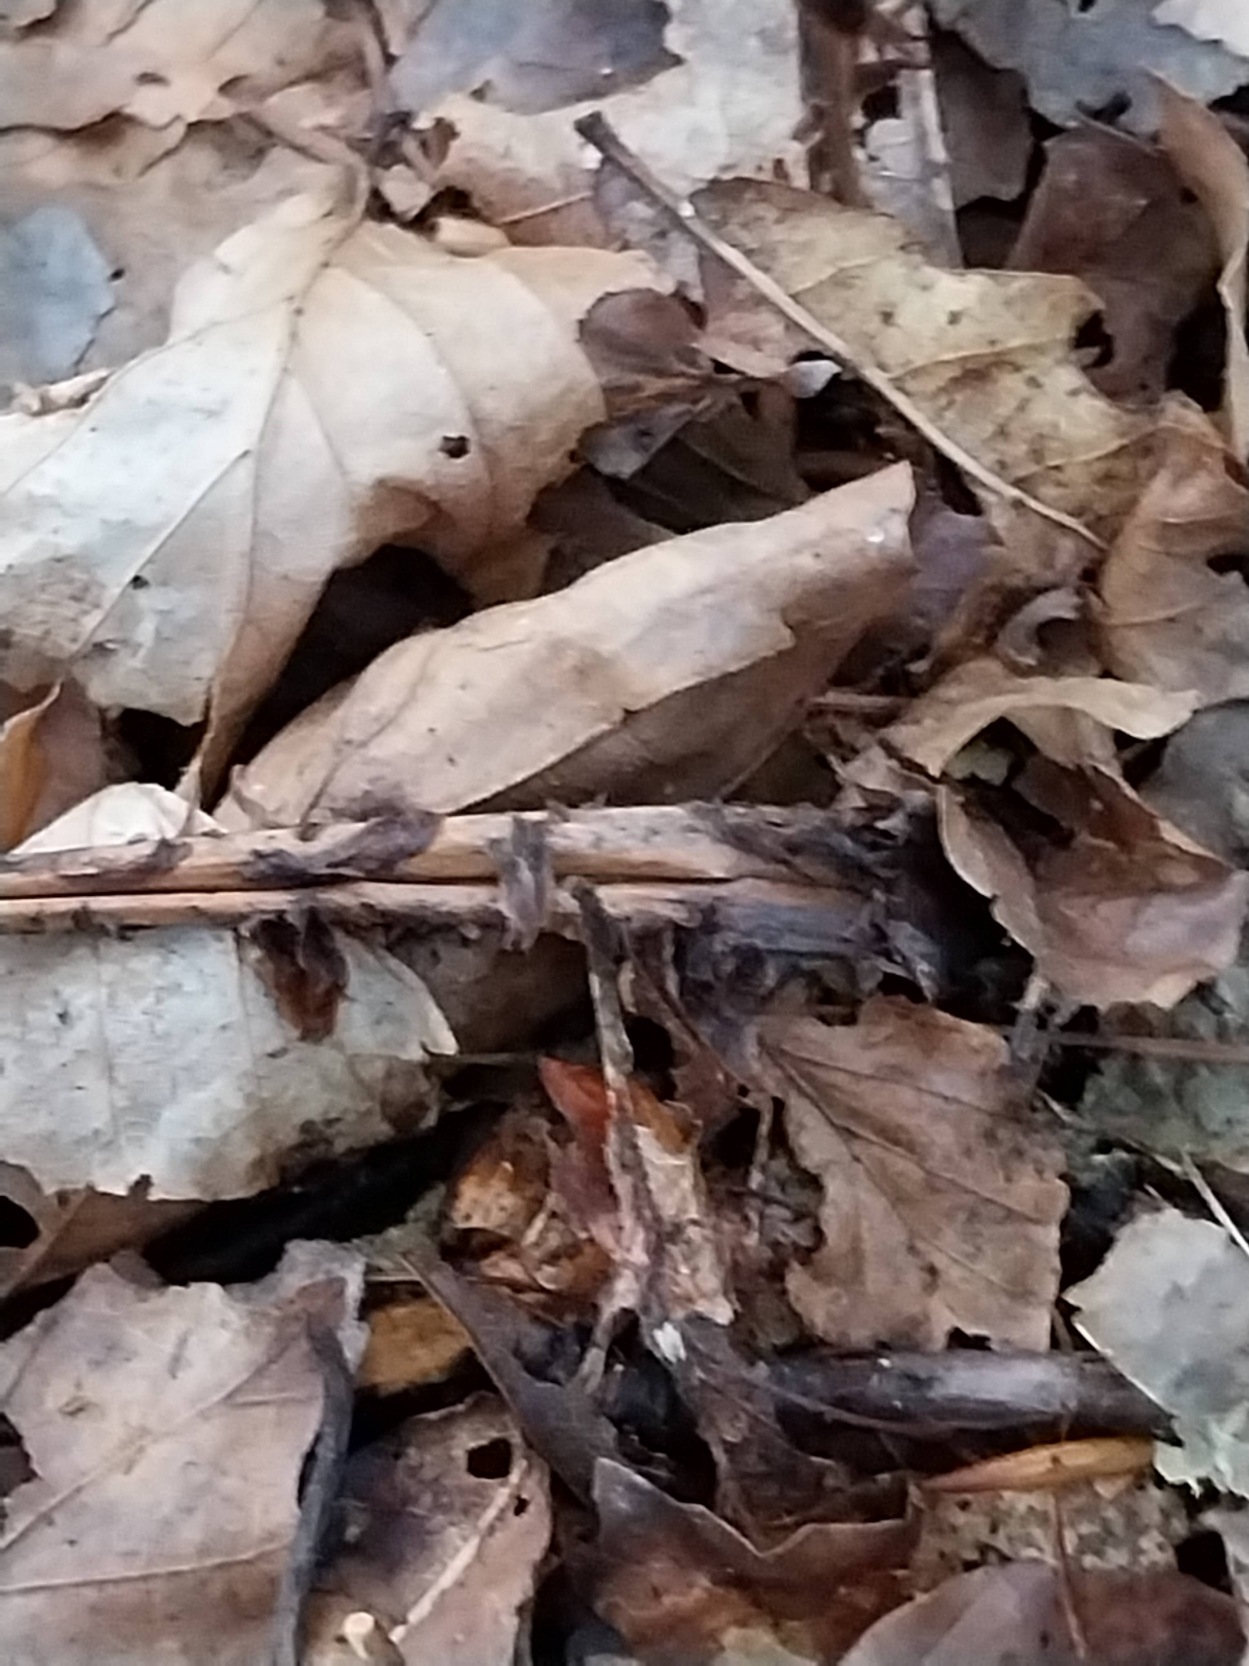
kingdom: Plantae
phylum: Tracheophyta
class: Polypodiopsida
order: Polypodiales
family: Dryopteridaceae
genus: Dryopteris
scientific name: Dryopteris dilatata
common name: Bredbladet mangeløv
